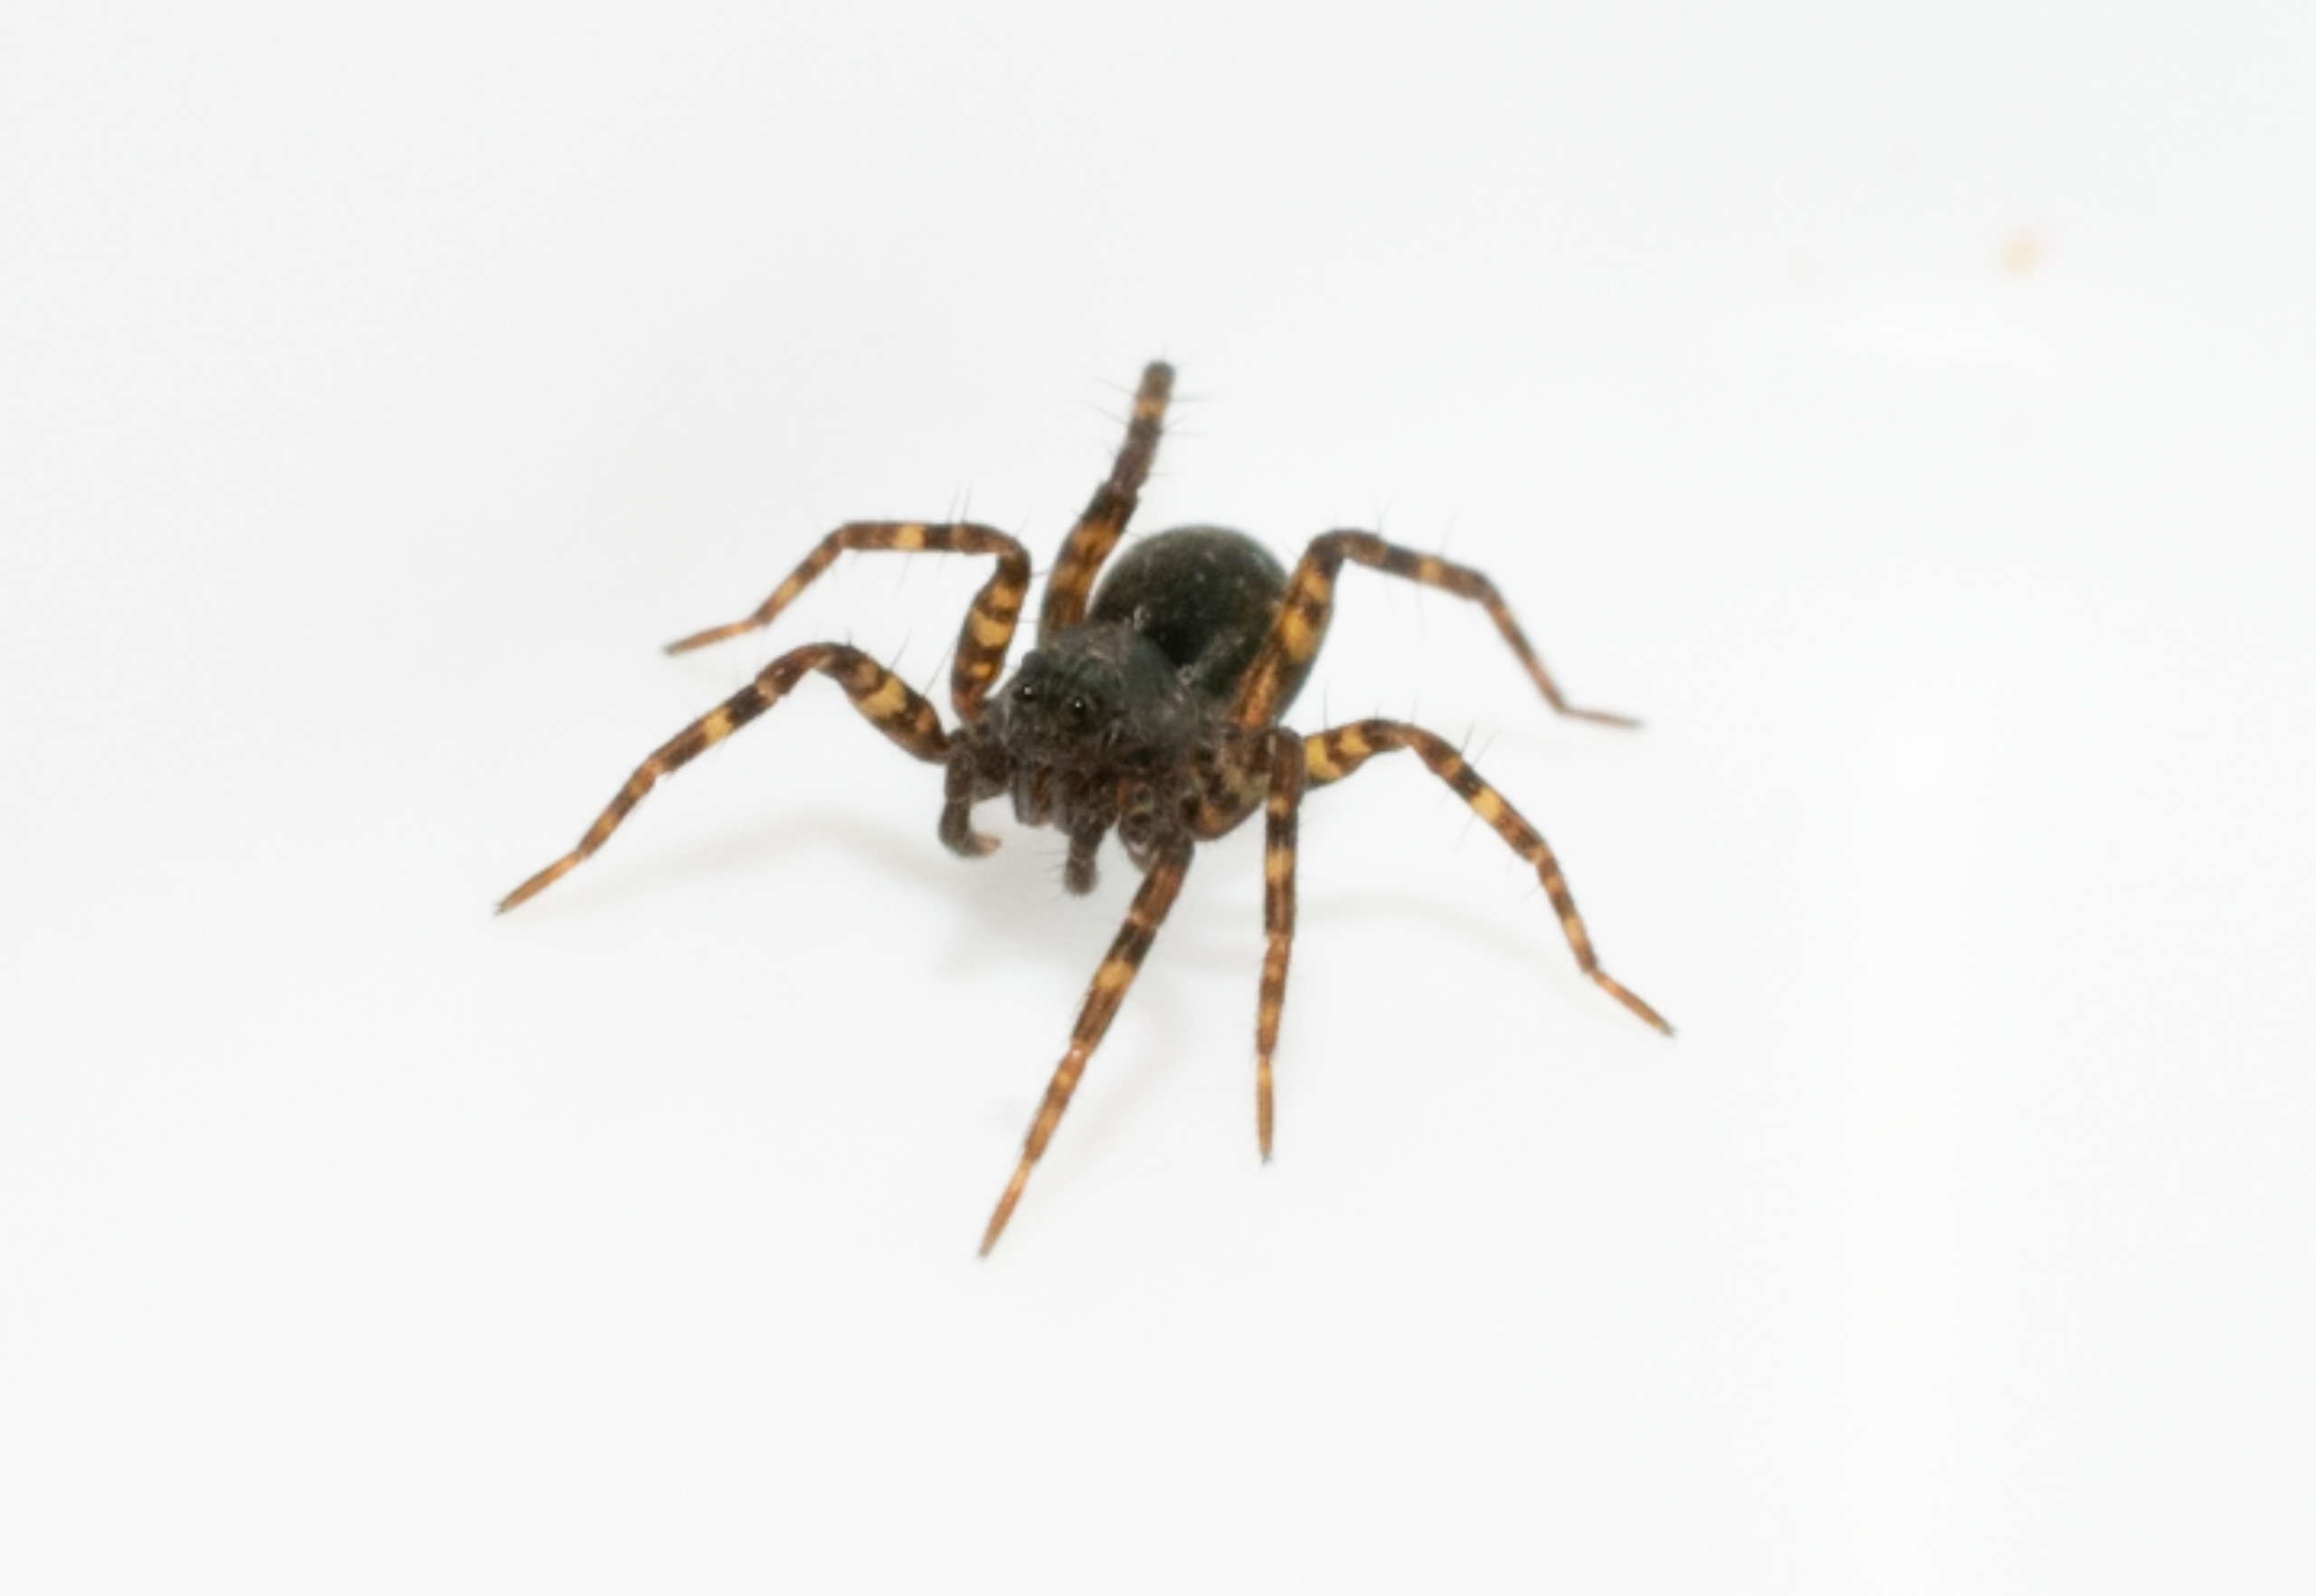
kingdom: Animalia
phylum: Arthropoda
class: Arachnida
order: Araneae
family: Lycosidae
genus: Pardosa
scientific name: Pardosa
